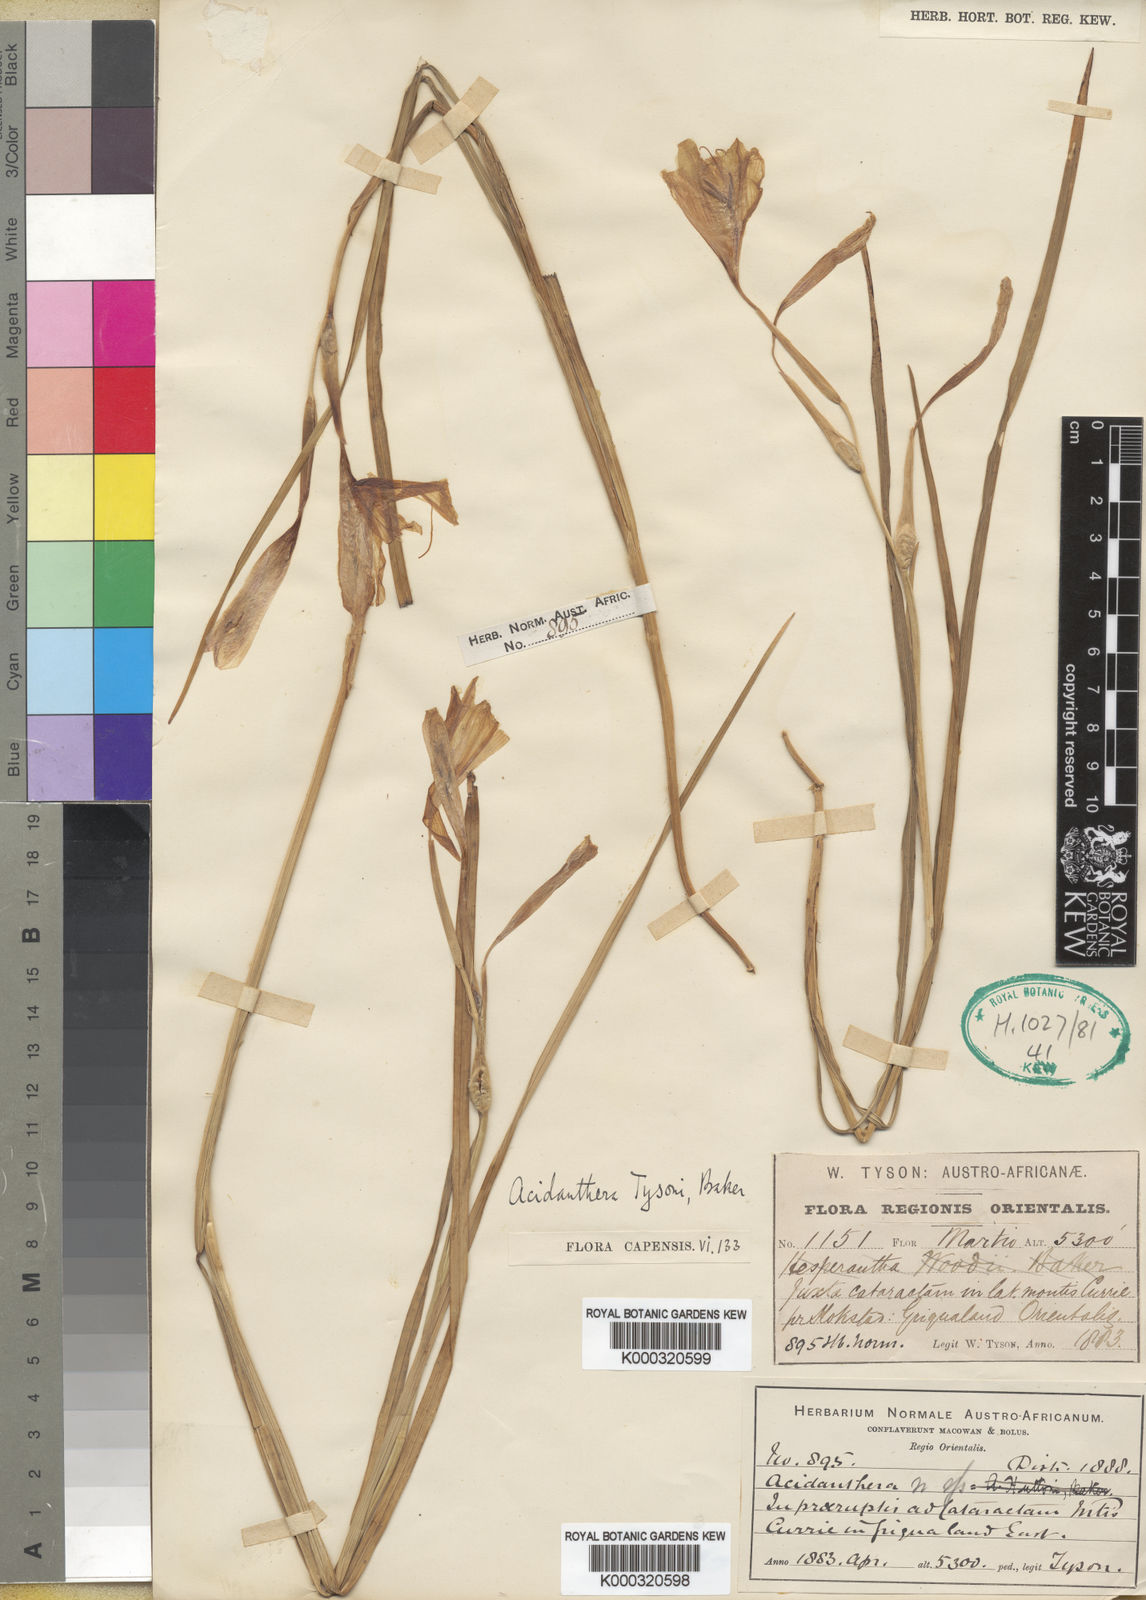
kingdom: Plantae
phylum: Tracheophyta
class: Liliopsida
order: Asparagales
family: Iridaceae
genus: Hesperantha
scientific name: Hesperantha grandiflora
